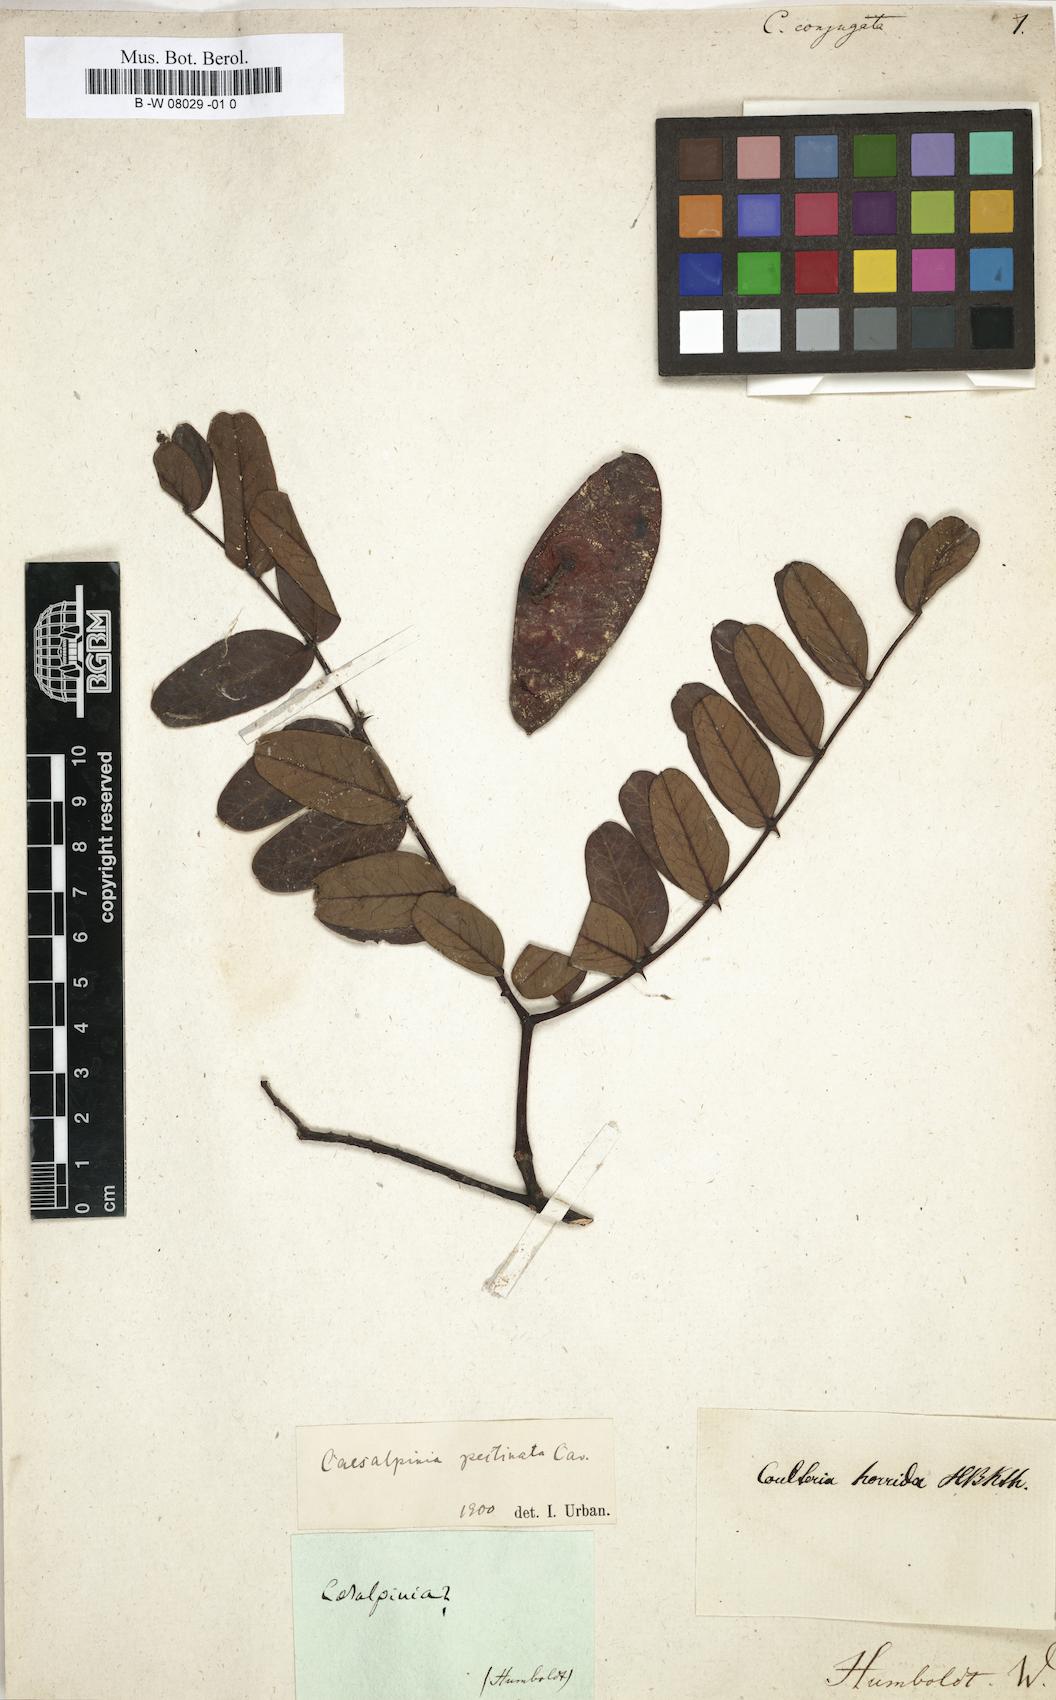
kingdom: Plantae
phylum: Tracheophyta
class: Magnoliopsida
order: Fabales
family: Fabaceae
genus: Caesalpinia
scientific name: Caesalpinia
